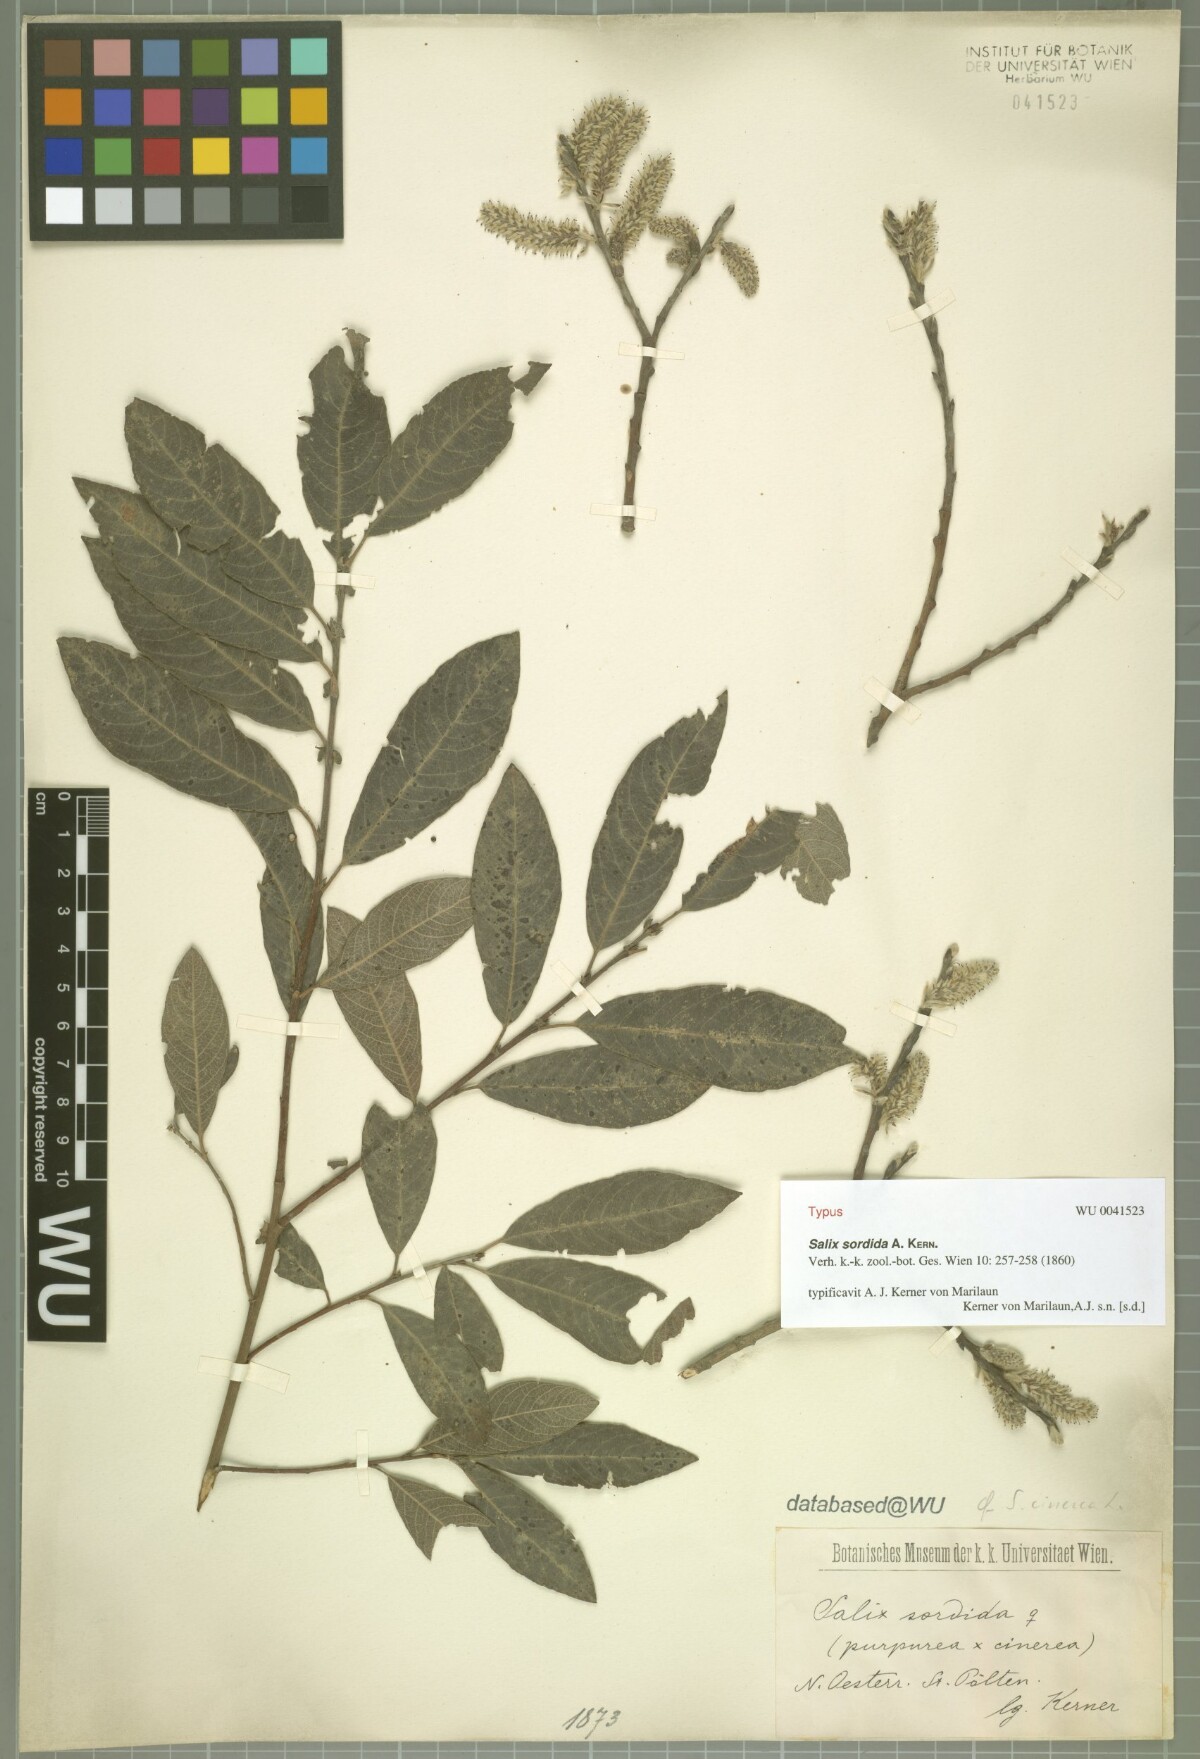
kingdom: Plantae
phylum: Tracheophyta
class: Magnoliopsida
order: Malpighiales
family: Salicaceae
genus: Salix
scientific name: Salix sordida
